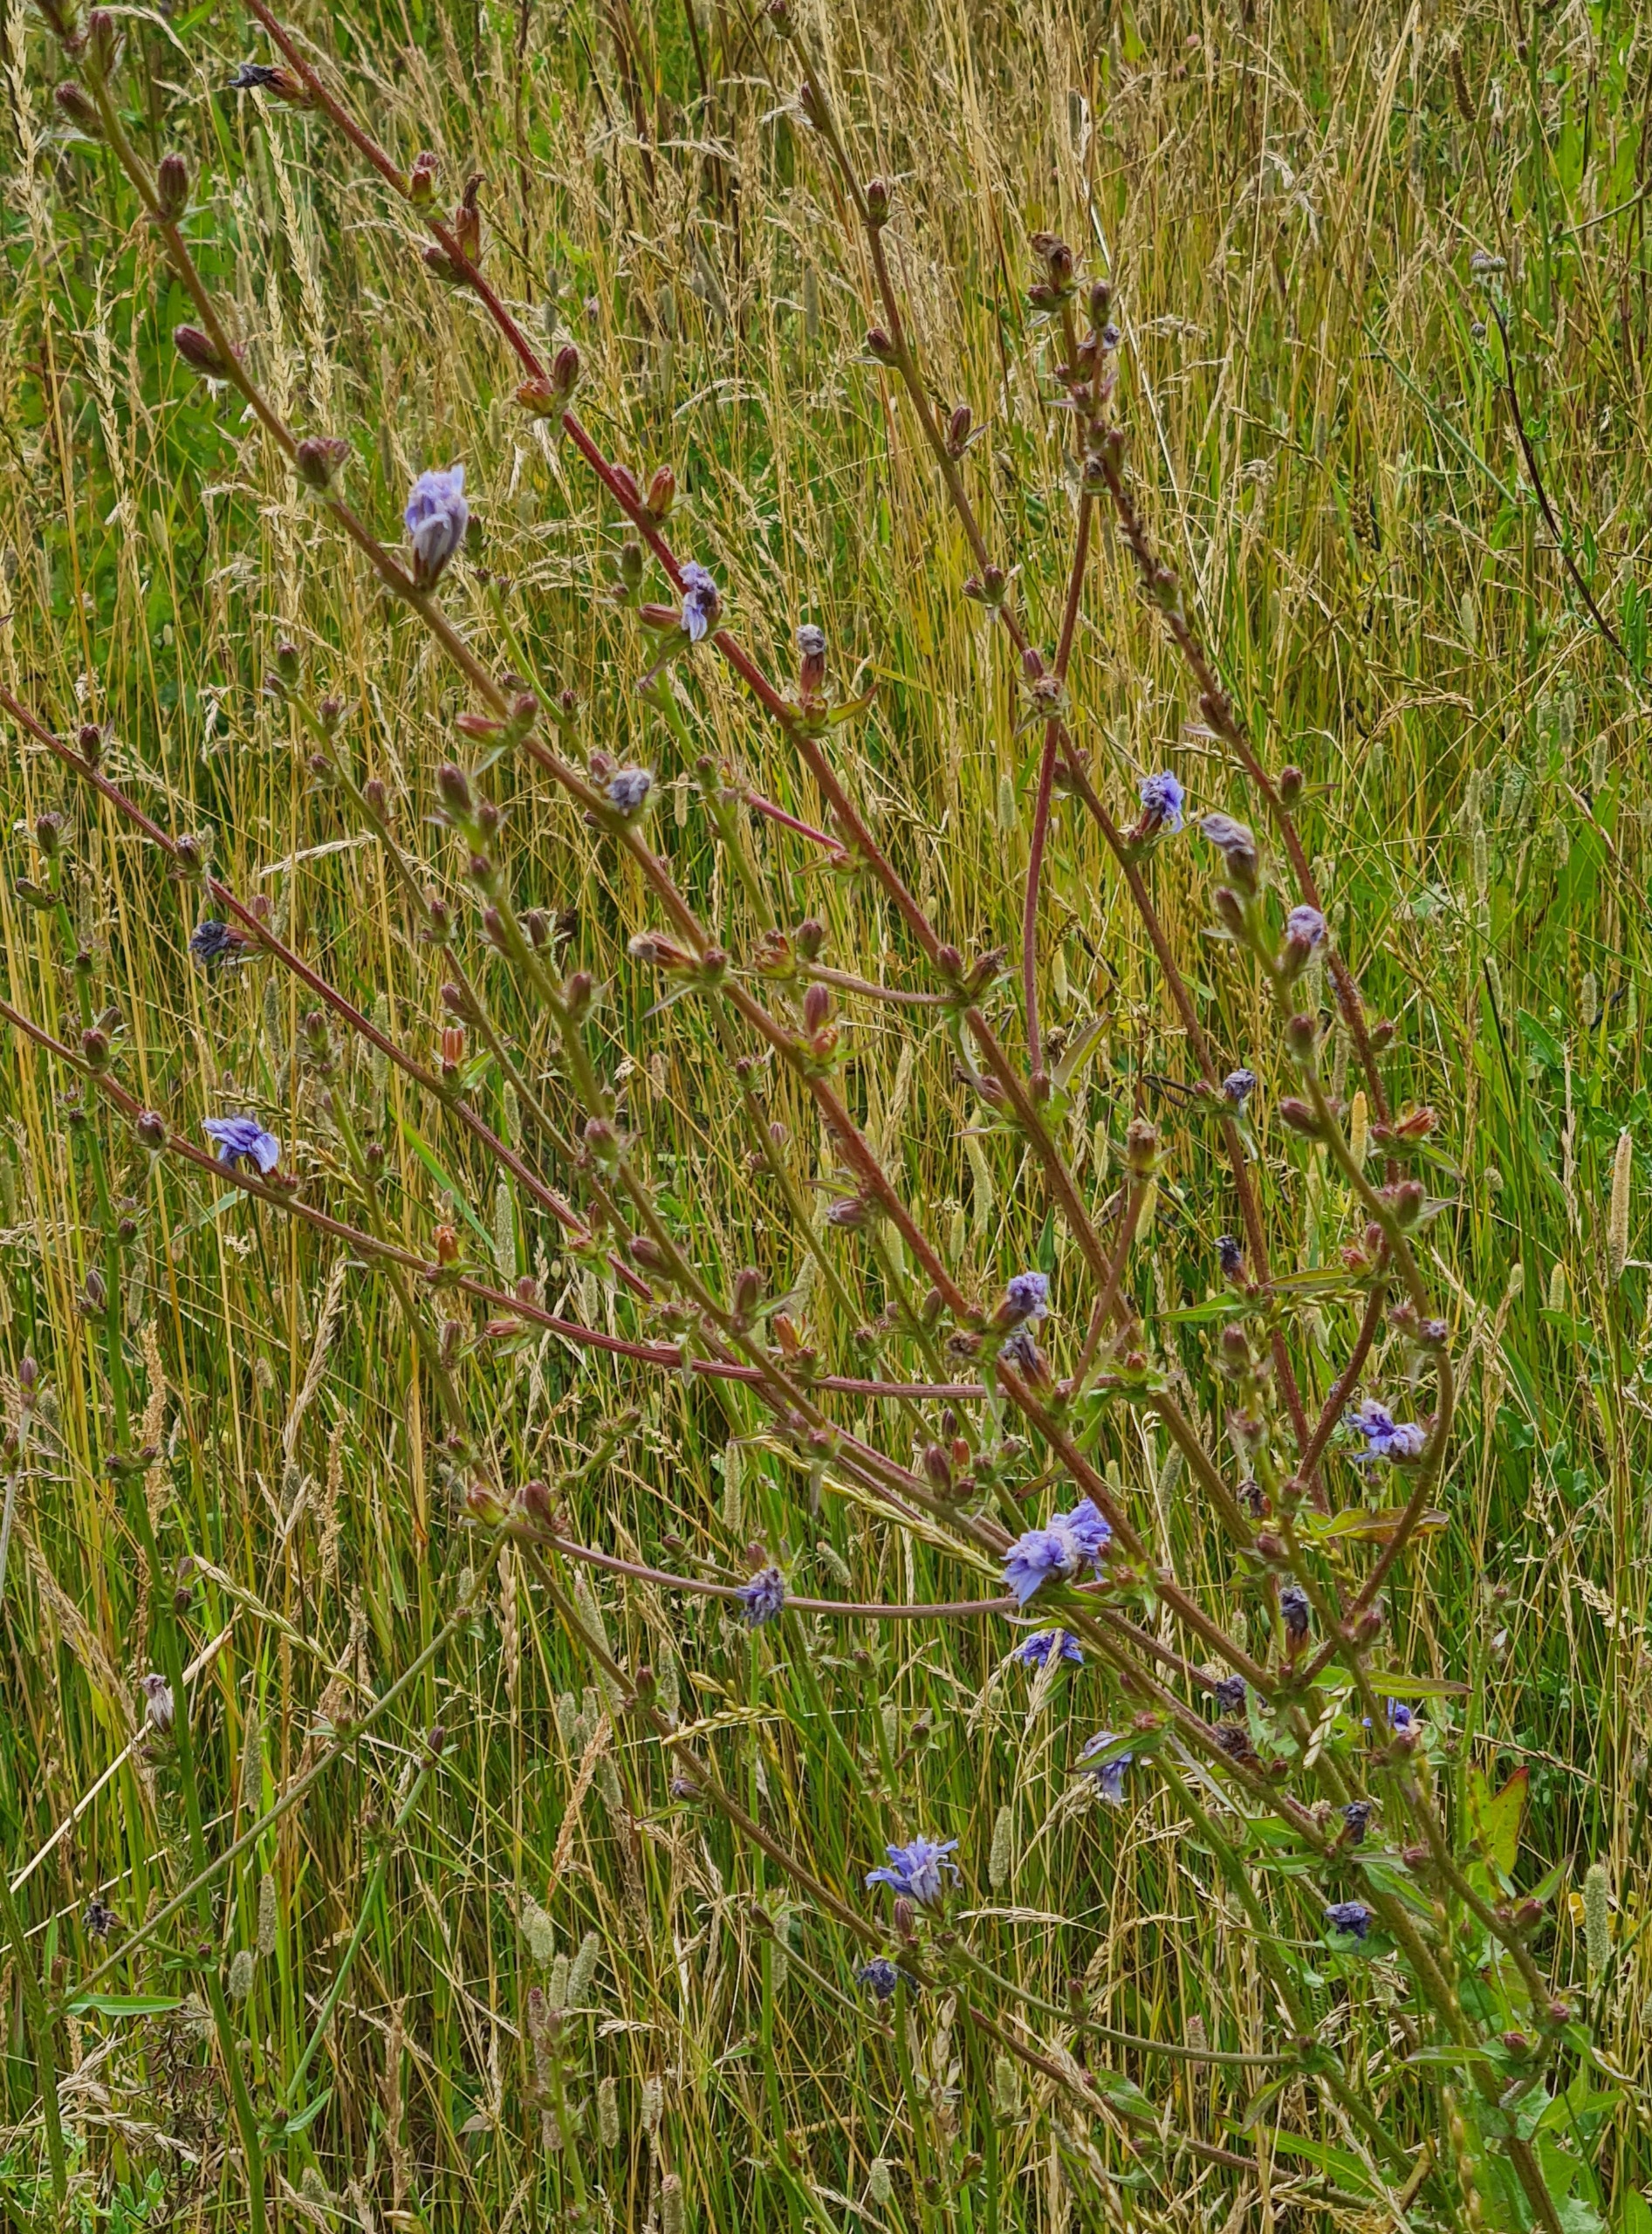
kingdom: Plantae
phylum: Tracheophyta
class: Magnoliopsida
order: Asterales
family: Asteraceae
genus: Cichorium
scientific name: Cichorium intybus
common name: Cikorie
